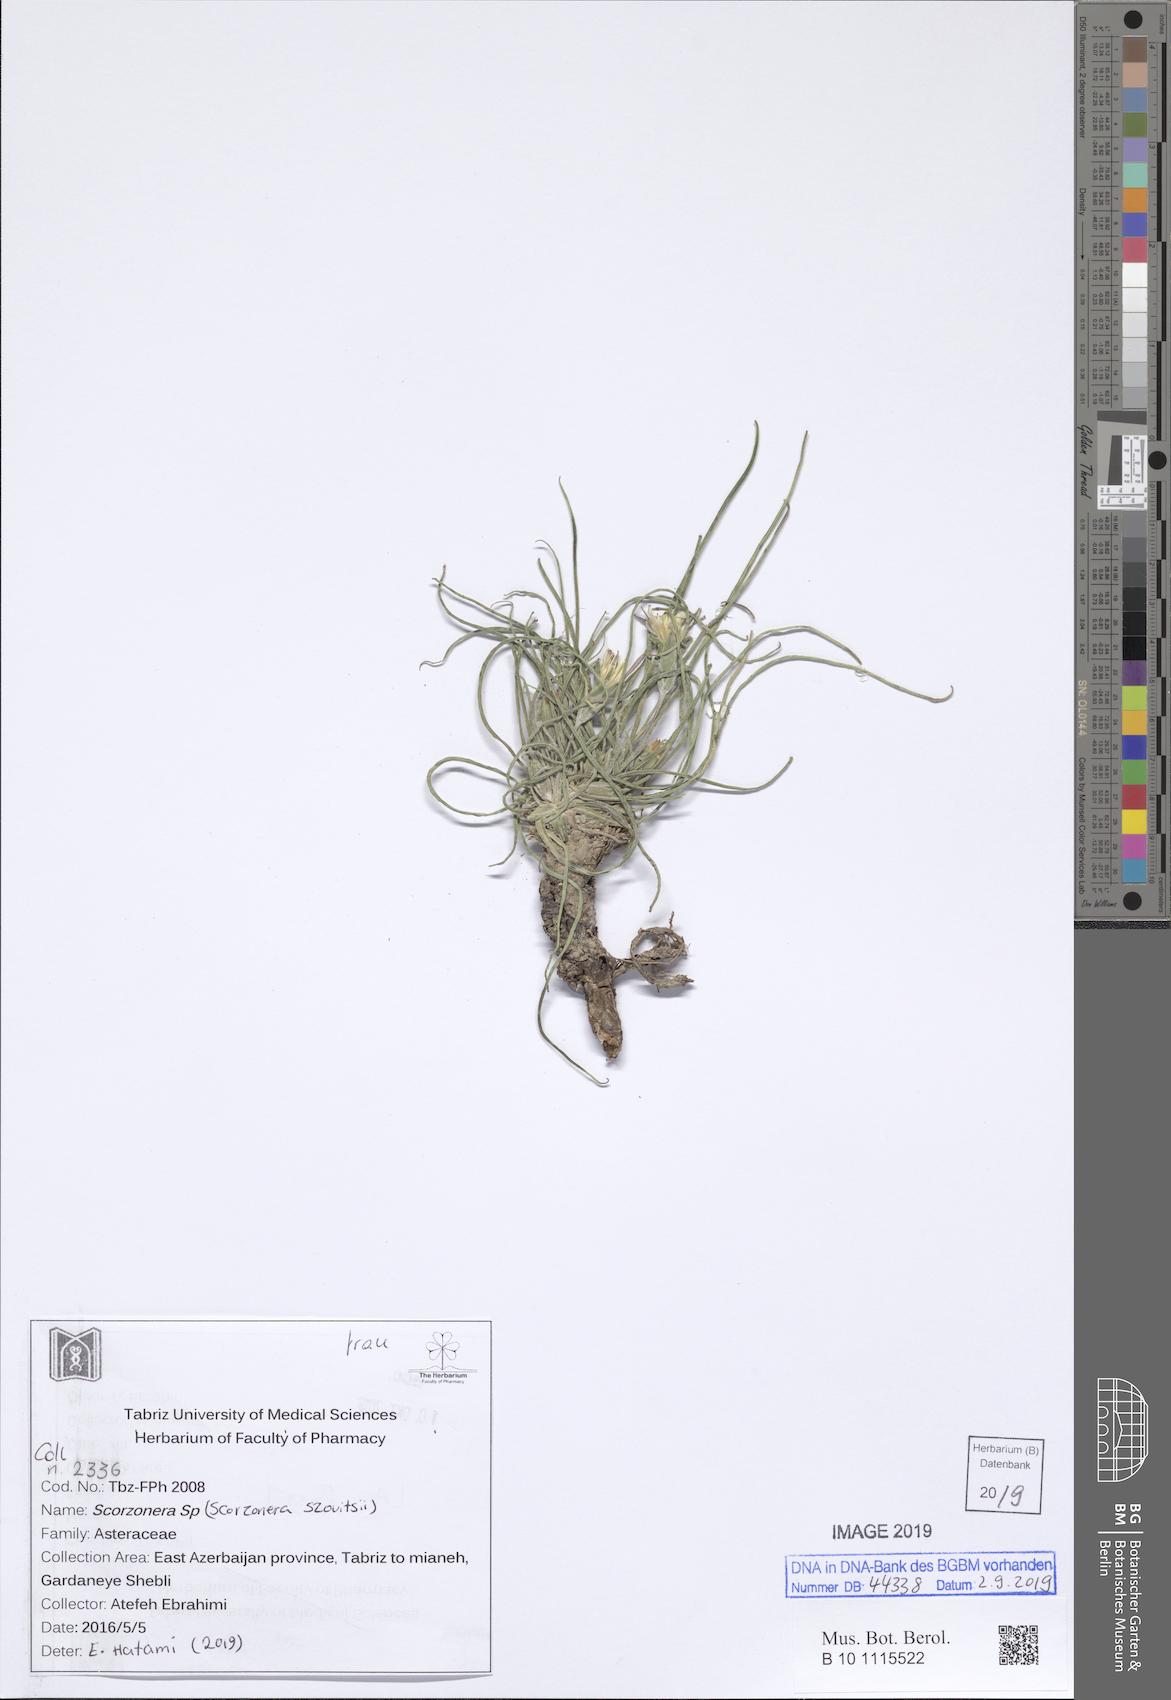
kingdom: Plantae
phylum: Tracheophyta
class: Magnoliopsida
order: Asterales
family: Asteraceae
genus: Candollea
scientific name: Candollea szowitzii
